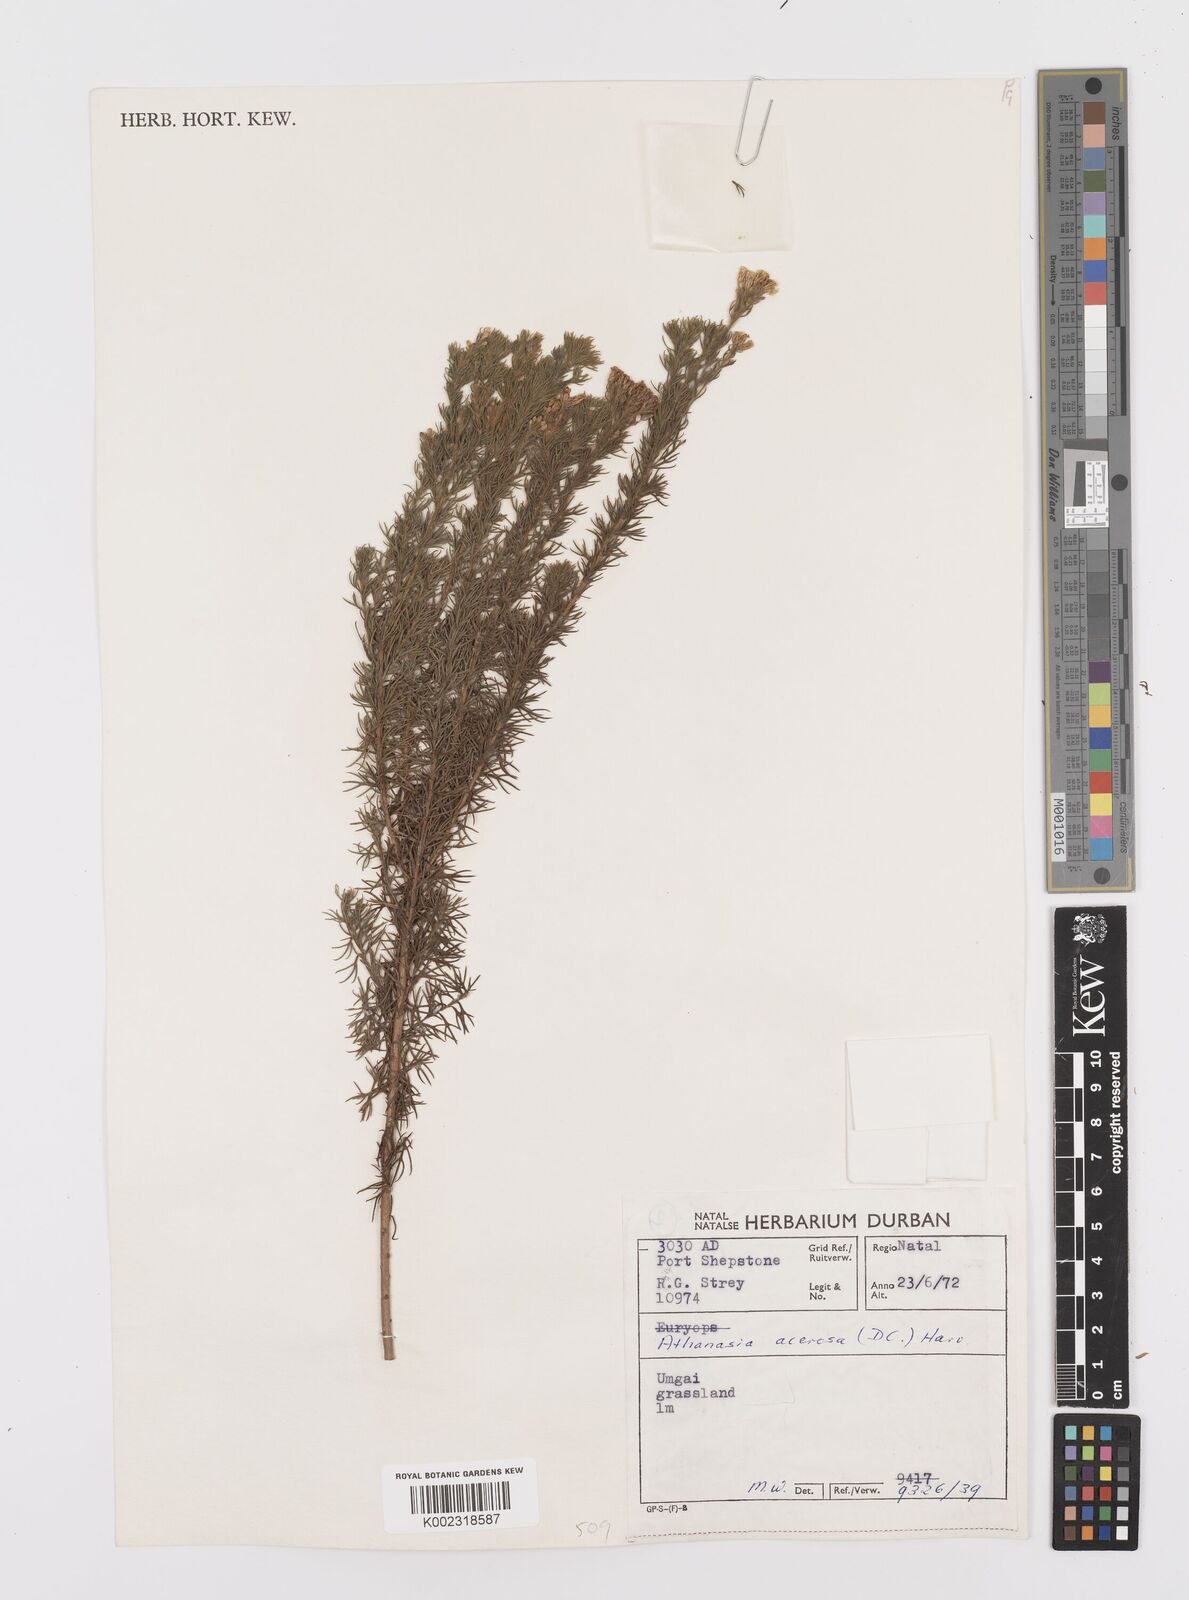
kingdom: Plantae
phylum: Tracheophyta
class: Magnoliopsida
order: Asterales
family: Asteraceae
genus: Phymaspermum
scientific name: Phymaspermum acerosum
